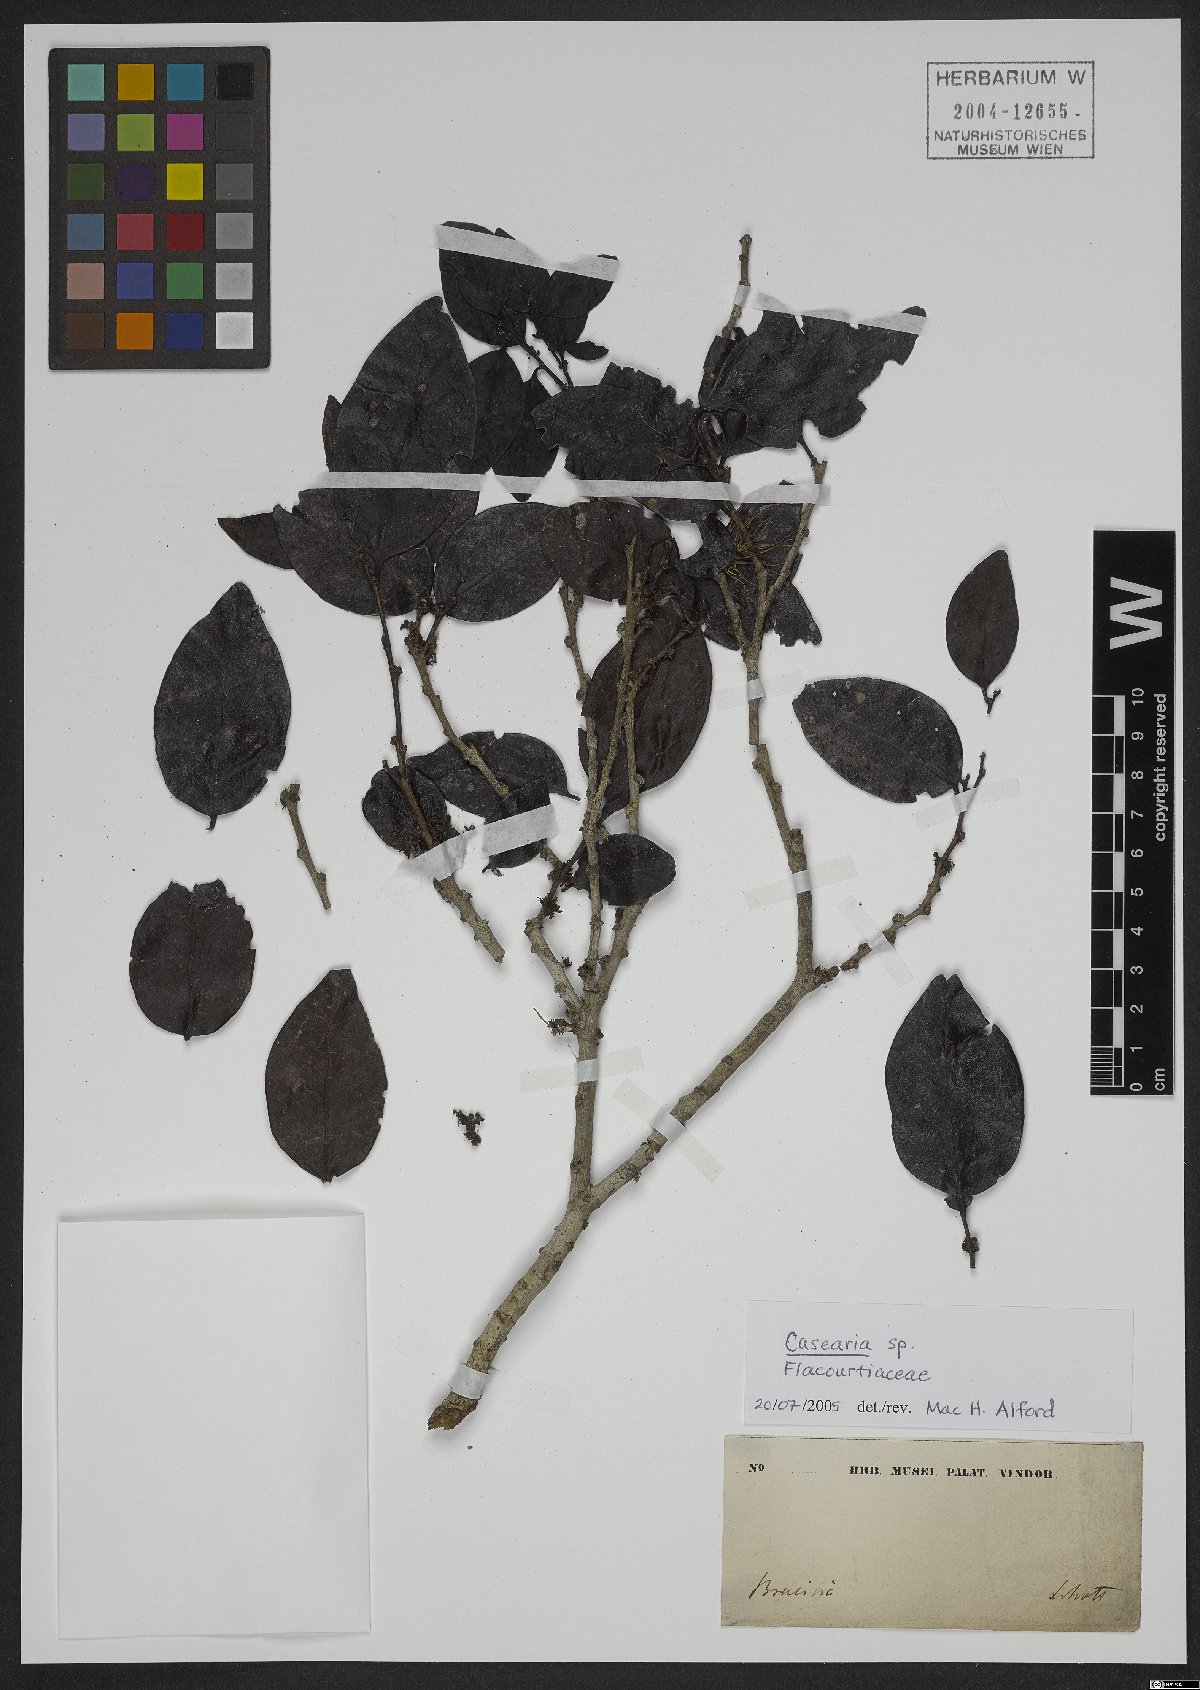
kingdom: Plantae
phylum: Tracheophyta
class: Magnoliopsida
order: Malpighiales
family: Salicaceae
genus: Casearia
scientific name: Casearia
